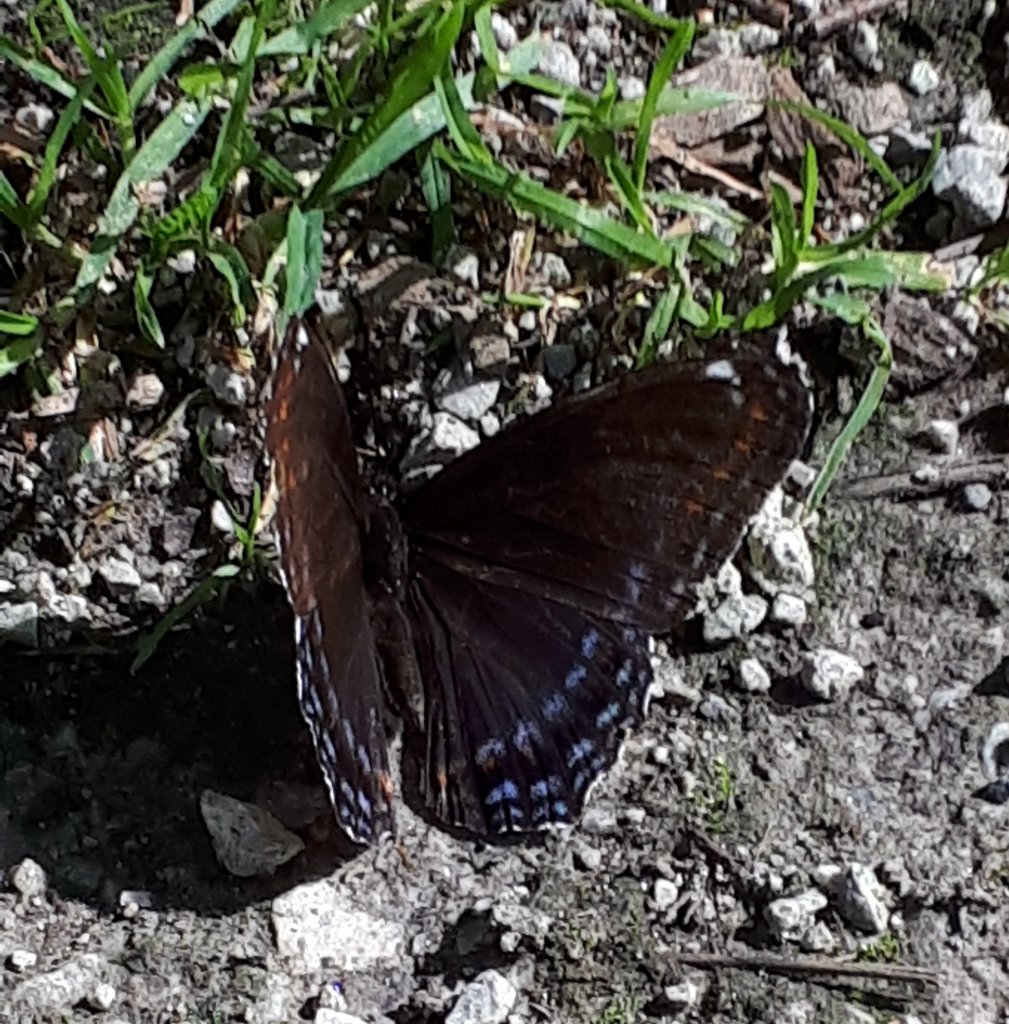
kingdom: Animalia
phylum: Arthropoda
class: Insecta
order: Lepidoptera
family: Nymphalidae
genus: Limenitis
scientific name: Limenitis astyanax
